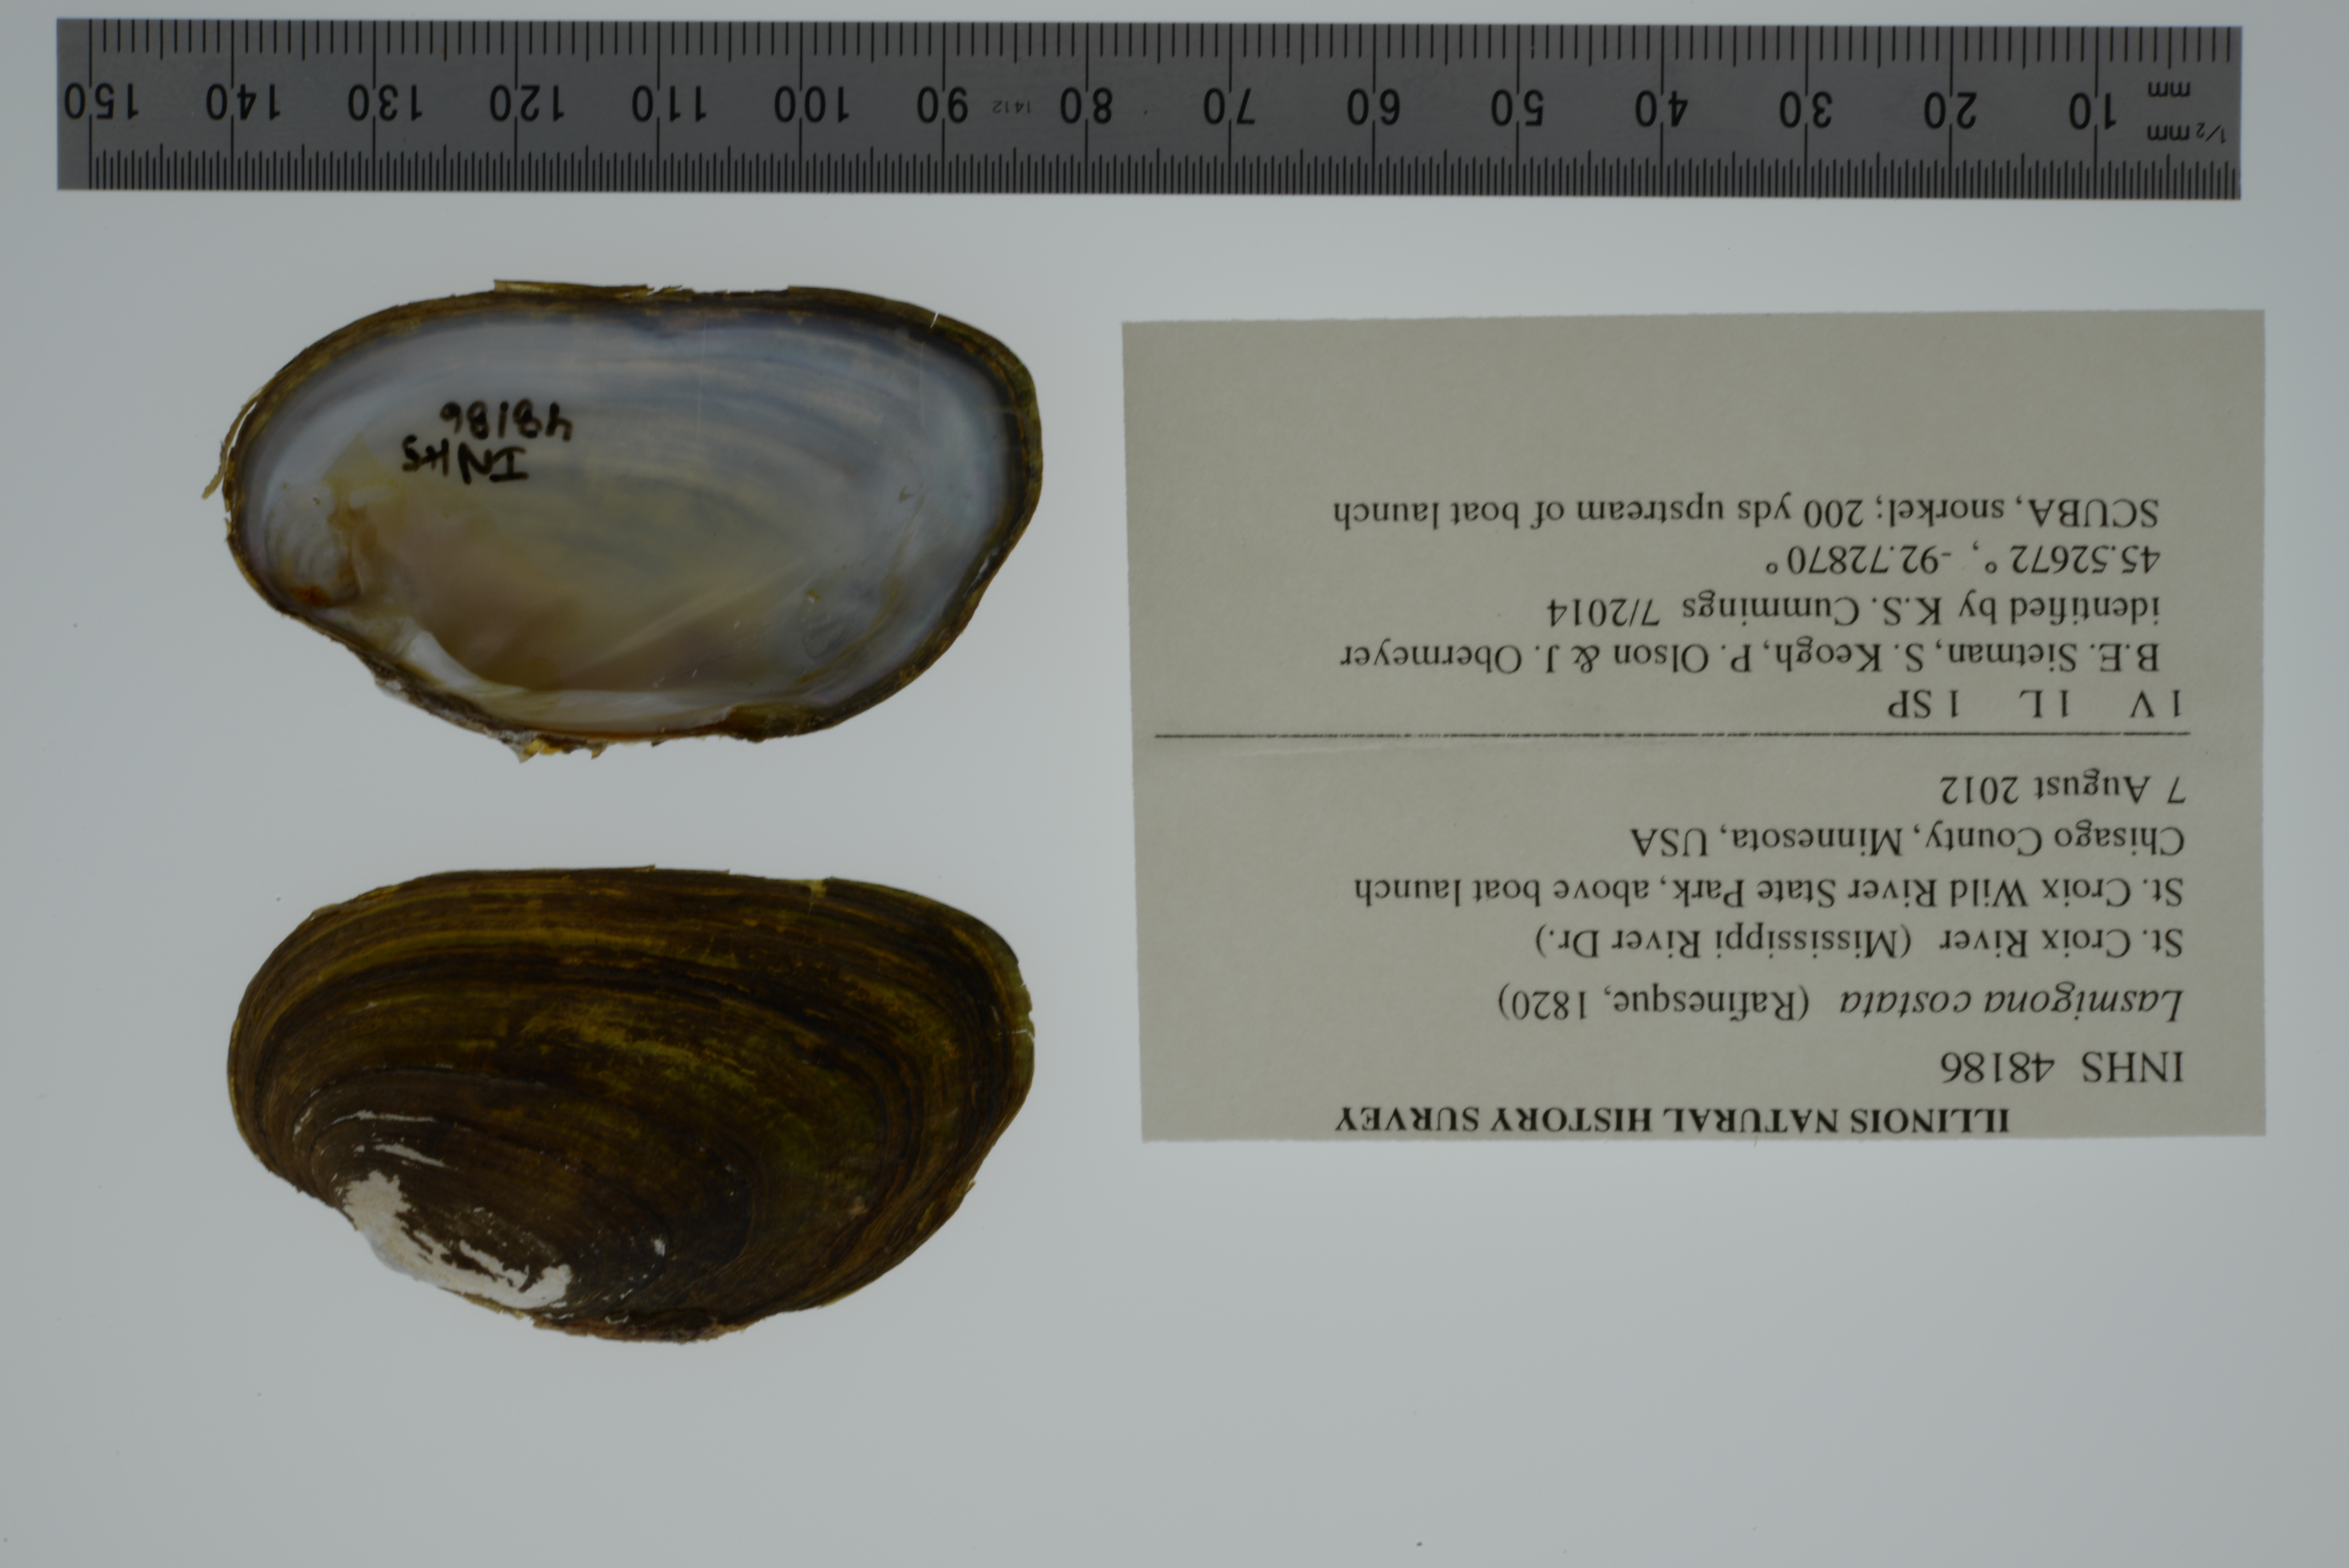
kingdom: Animalia
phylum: Mollusca
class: Bivalvia
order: Unionida
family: Unionidae
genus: Lasmigona
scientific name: Lasmigona costata
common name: Flutedshell
